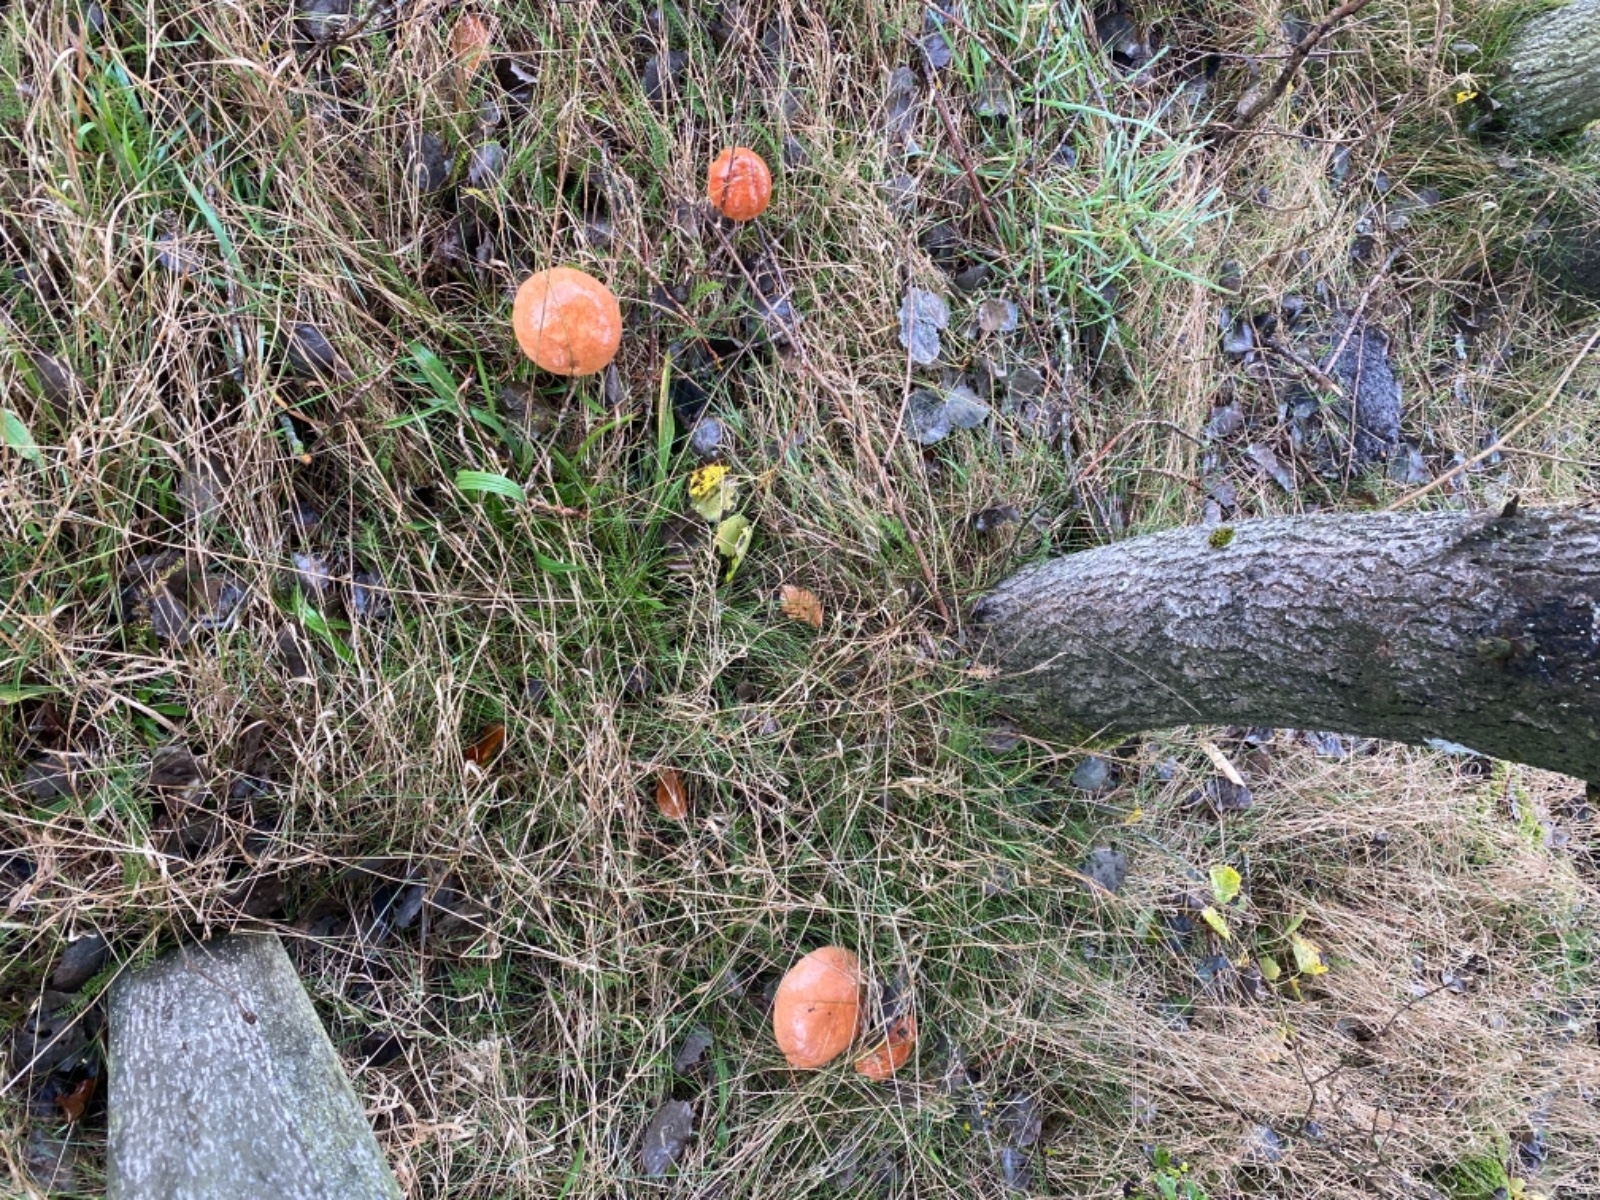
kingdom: Fungi
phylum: Basidiomycota
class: Agaricomycetes
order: Boletales
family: Boletaceae
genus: Leccinum
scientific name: Leccinum albostipitatum
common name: aspe-skælrørhat
